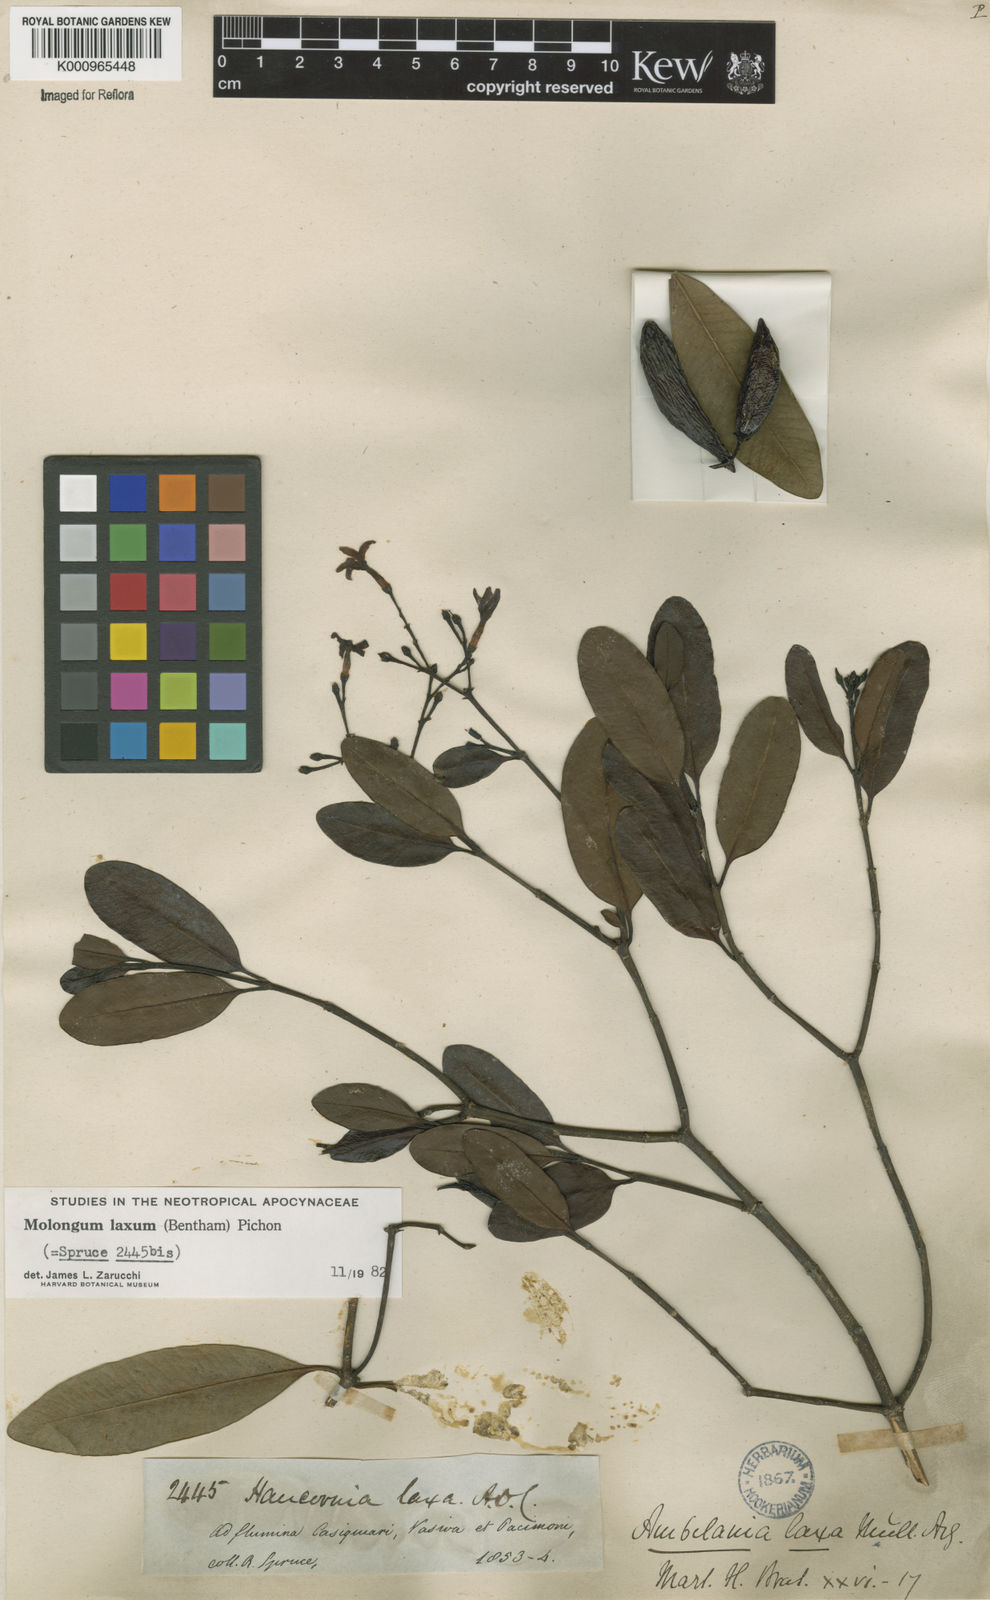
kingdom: Plantae
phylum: Tracheophyta
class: Magnoliopsida
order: Gentianales
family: Apocynaceae
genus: Molongum
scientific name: Molongum laxum
